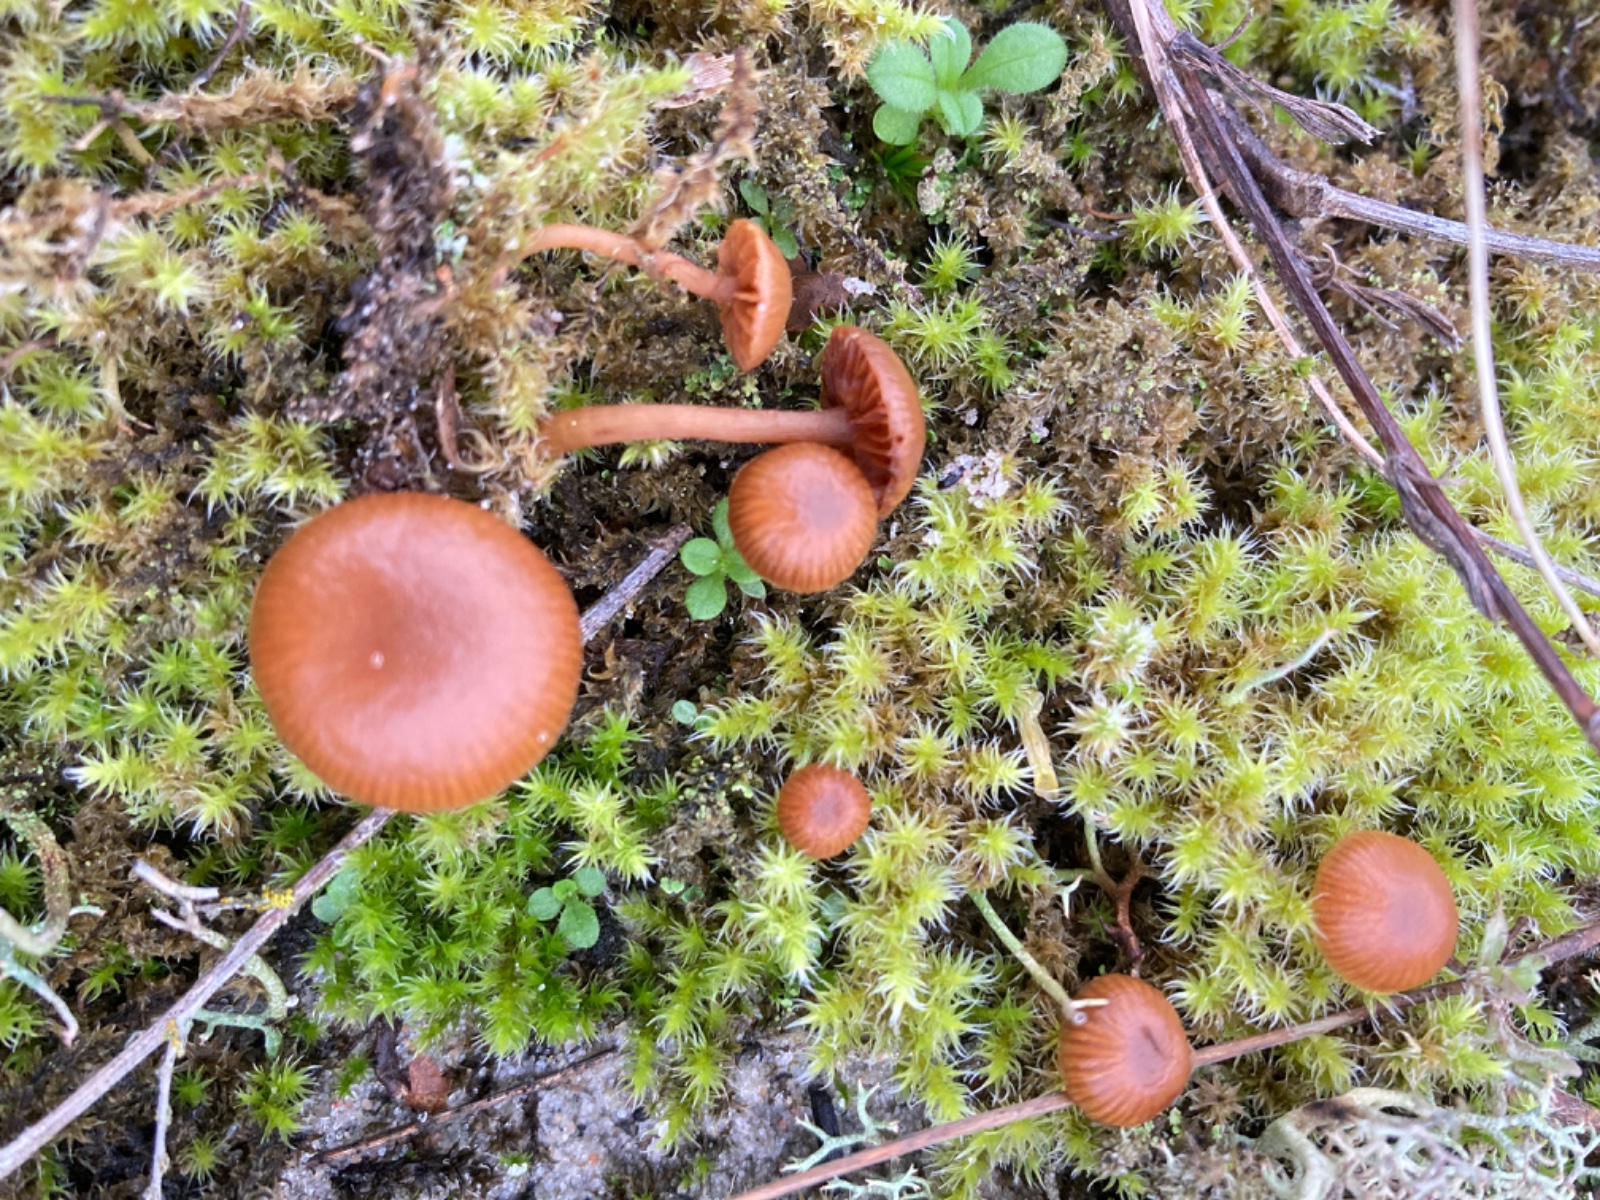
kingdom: Fungi
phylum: Basidiomycota
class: Agaricomycetes
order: Agaricales
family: Strophariaceae
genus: Deconica
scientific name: Deconica montana
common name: rødbrun stråhat
